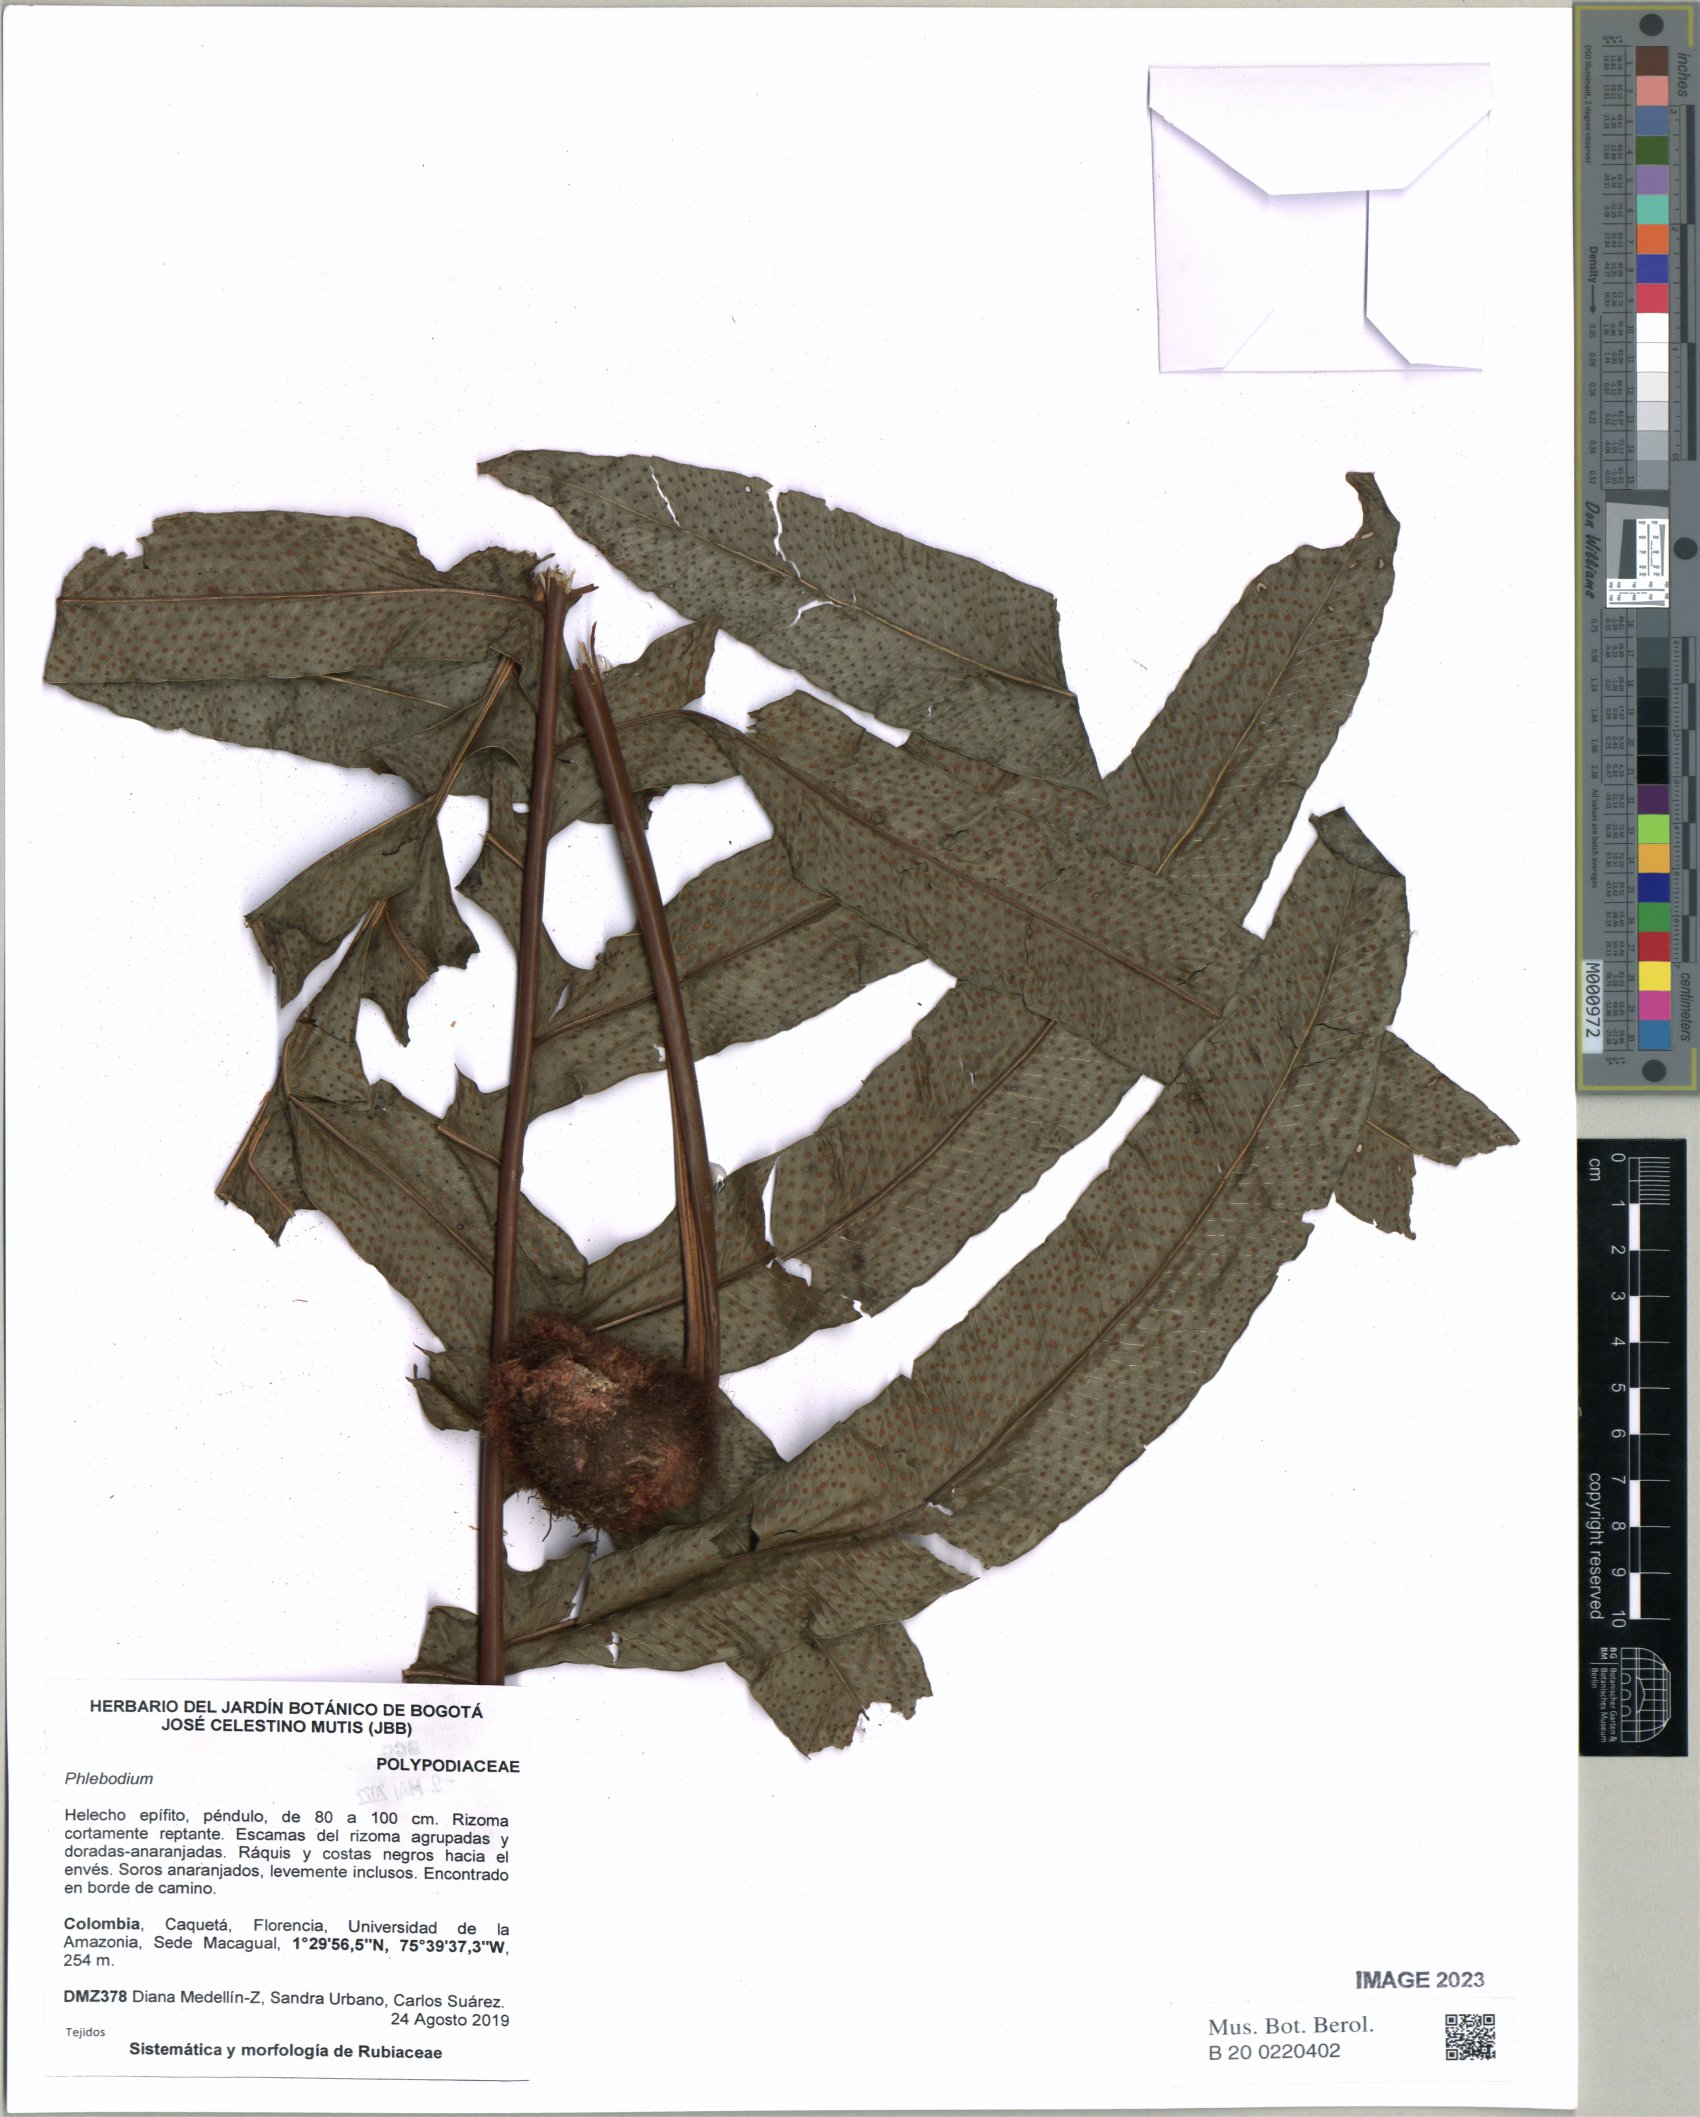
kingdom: Plantae
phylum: Tracheophyta
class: Polypodiopsida
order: Polypodiales
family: Polypodiaceae
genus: Phlebodium
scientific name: Phlebodium
